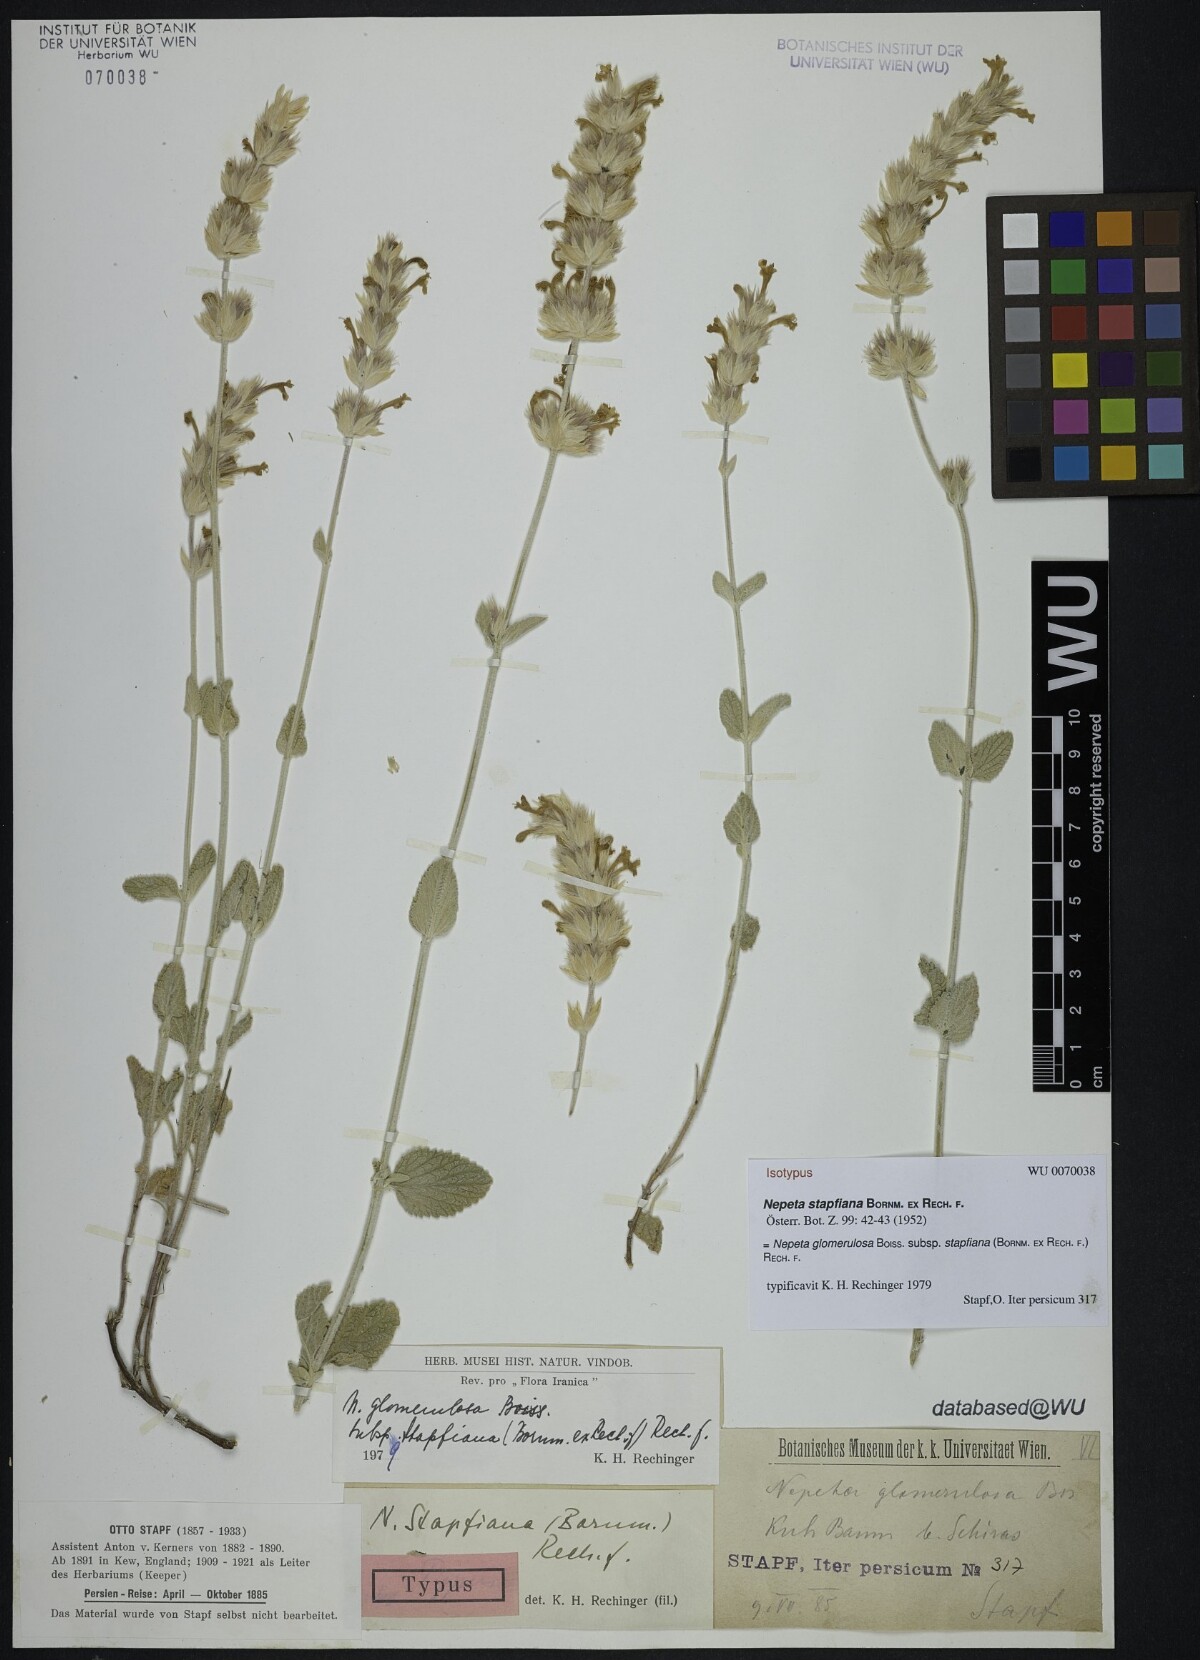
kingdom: Plantae
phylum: Tracheophyta
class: Magnoliopsida
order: Lamiales
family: Lamiaceae
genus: Nepeta
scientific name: Nepeta glomerulosa
